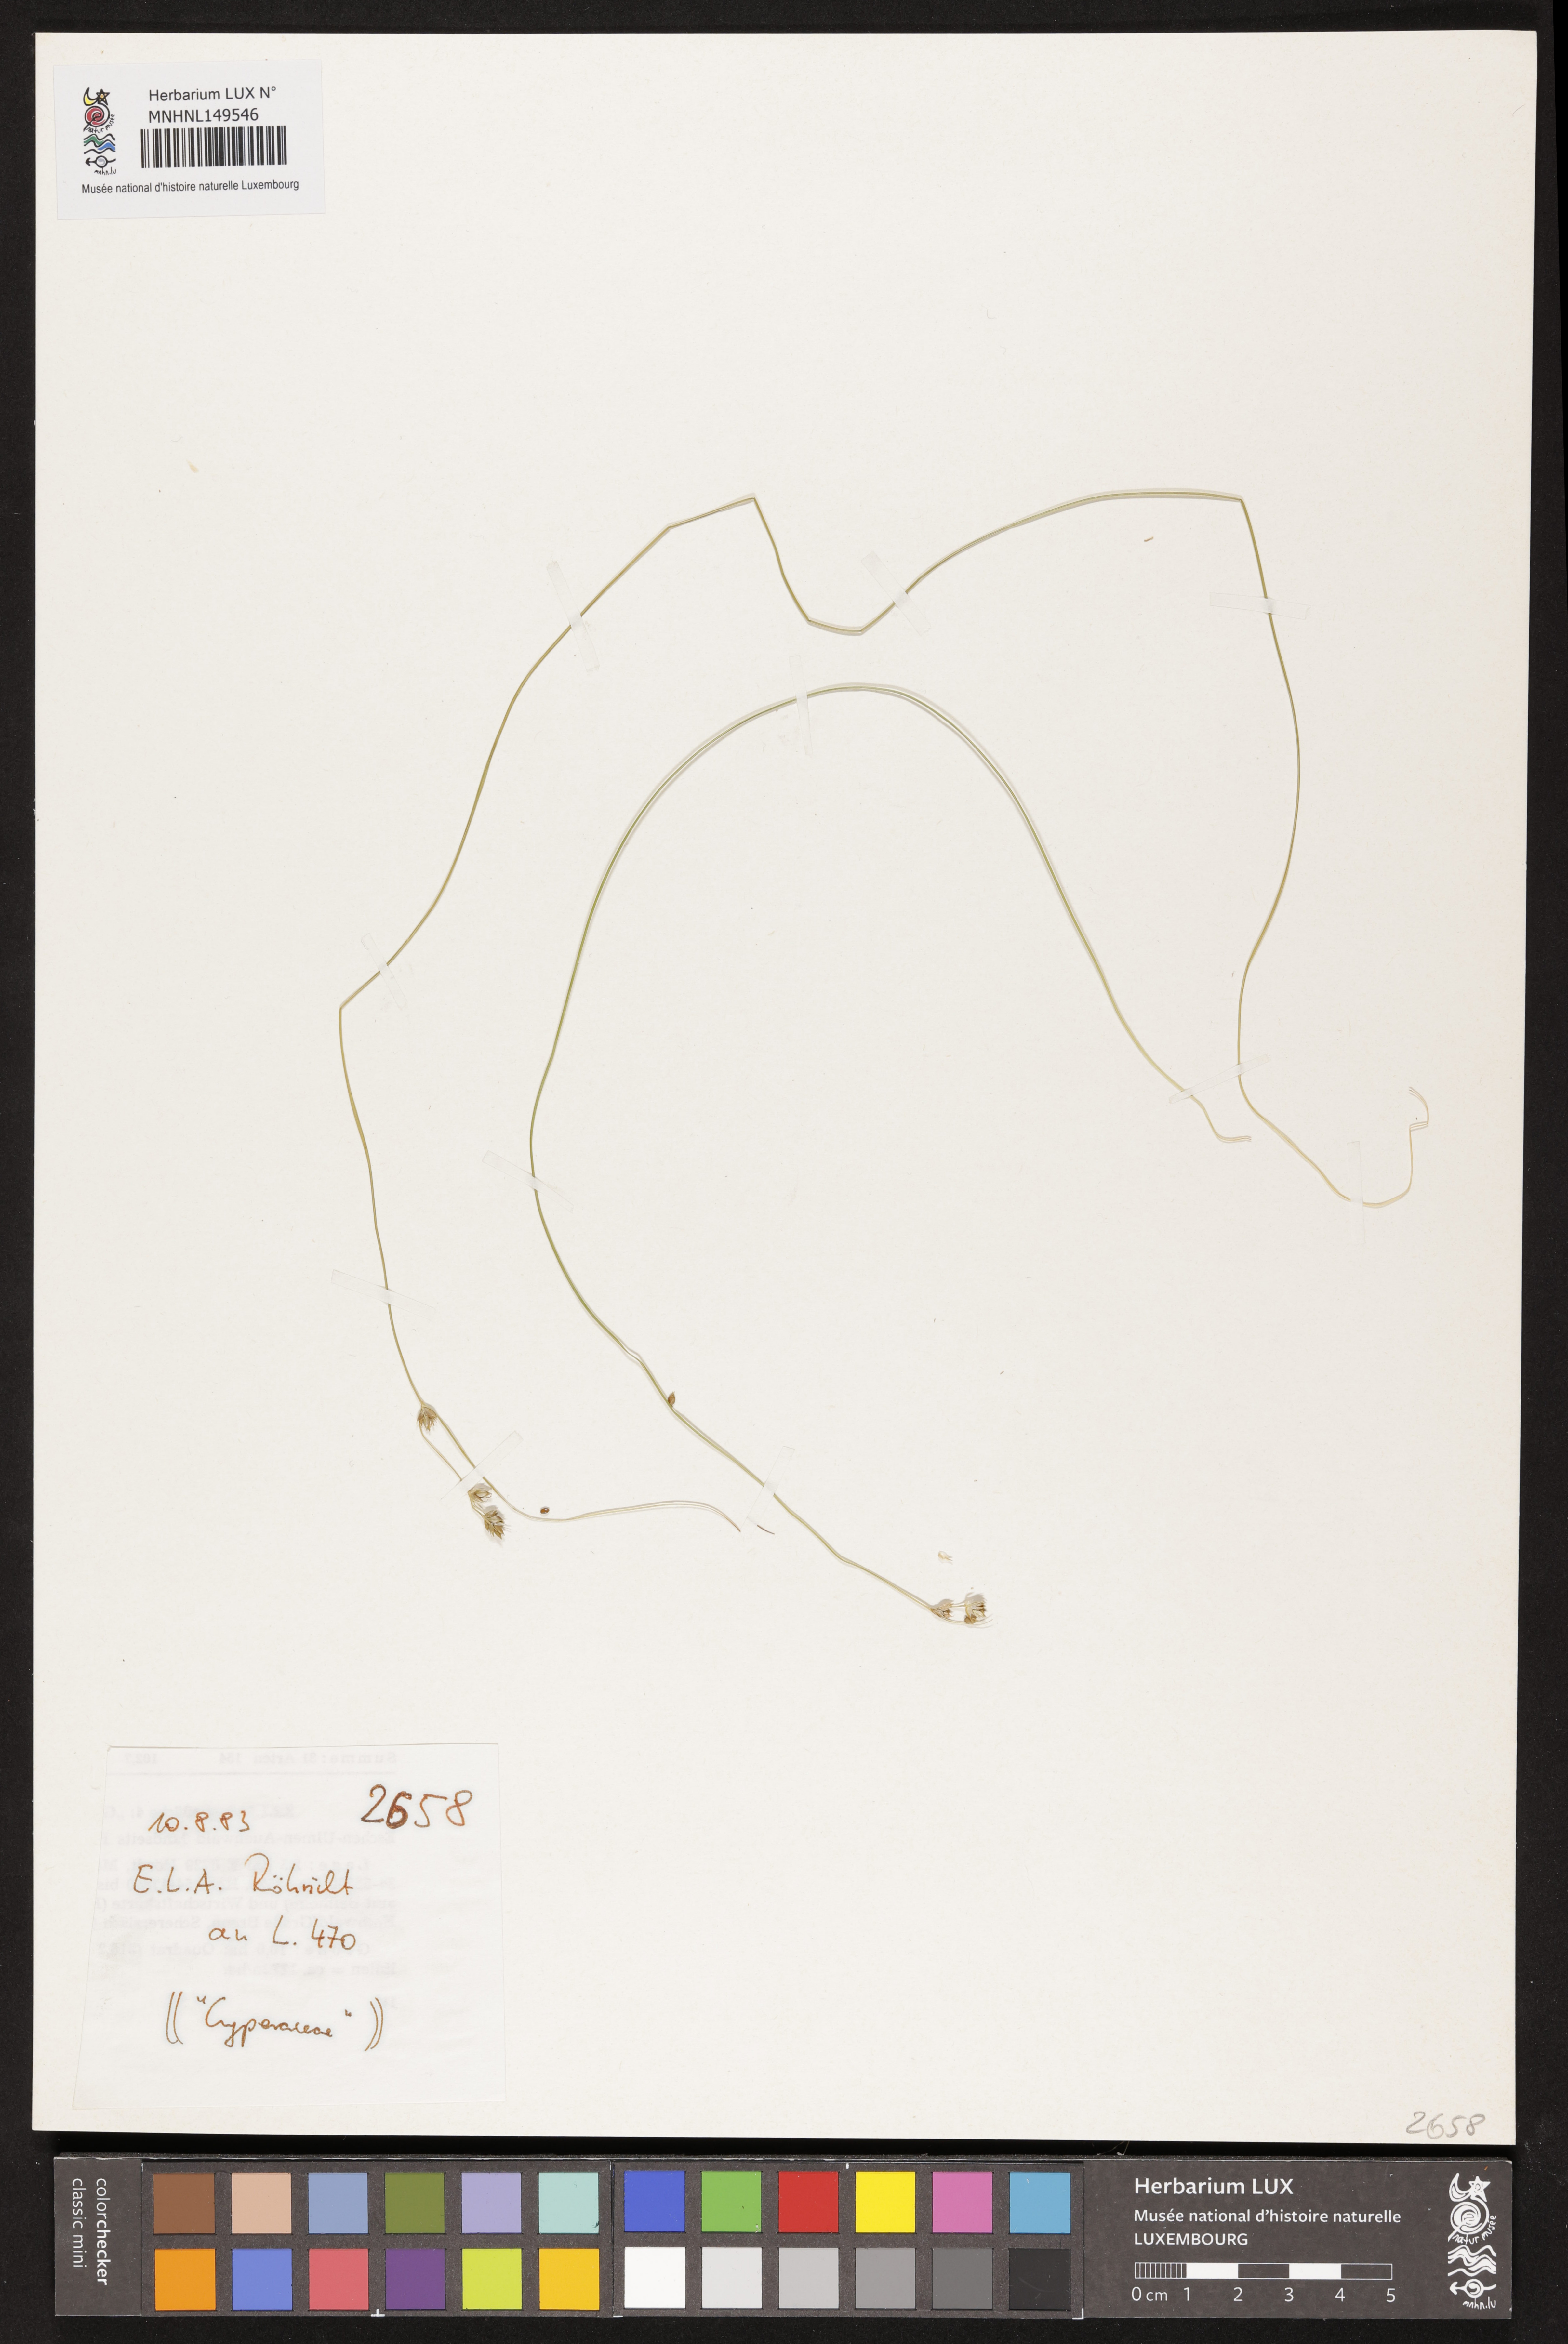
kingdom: Plantae
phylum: Tracheophyta
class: Liliopsida
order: Poales
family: Cyperaceae
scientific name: Cyperaceae
